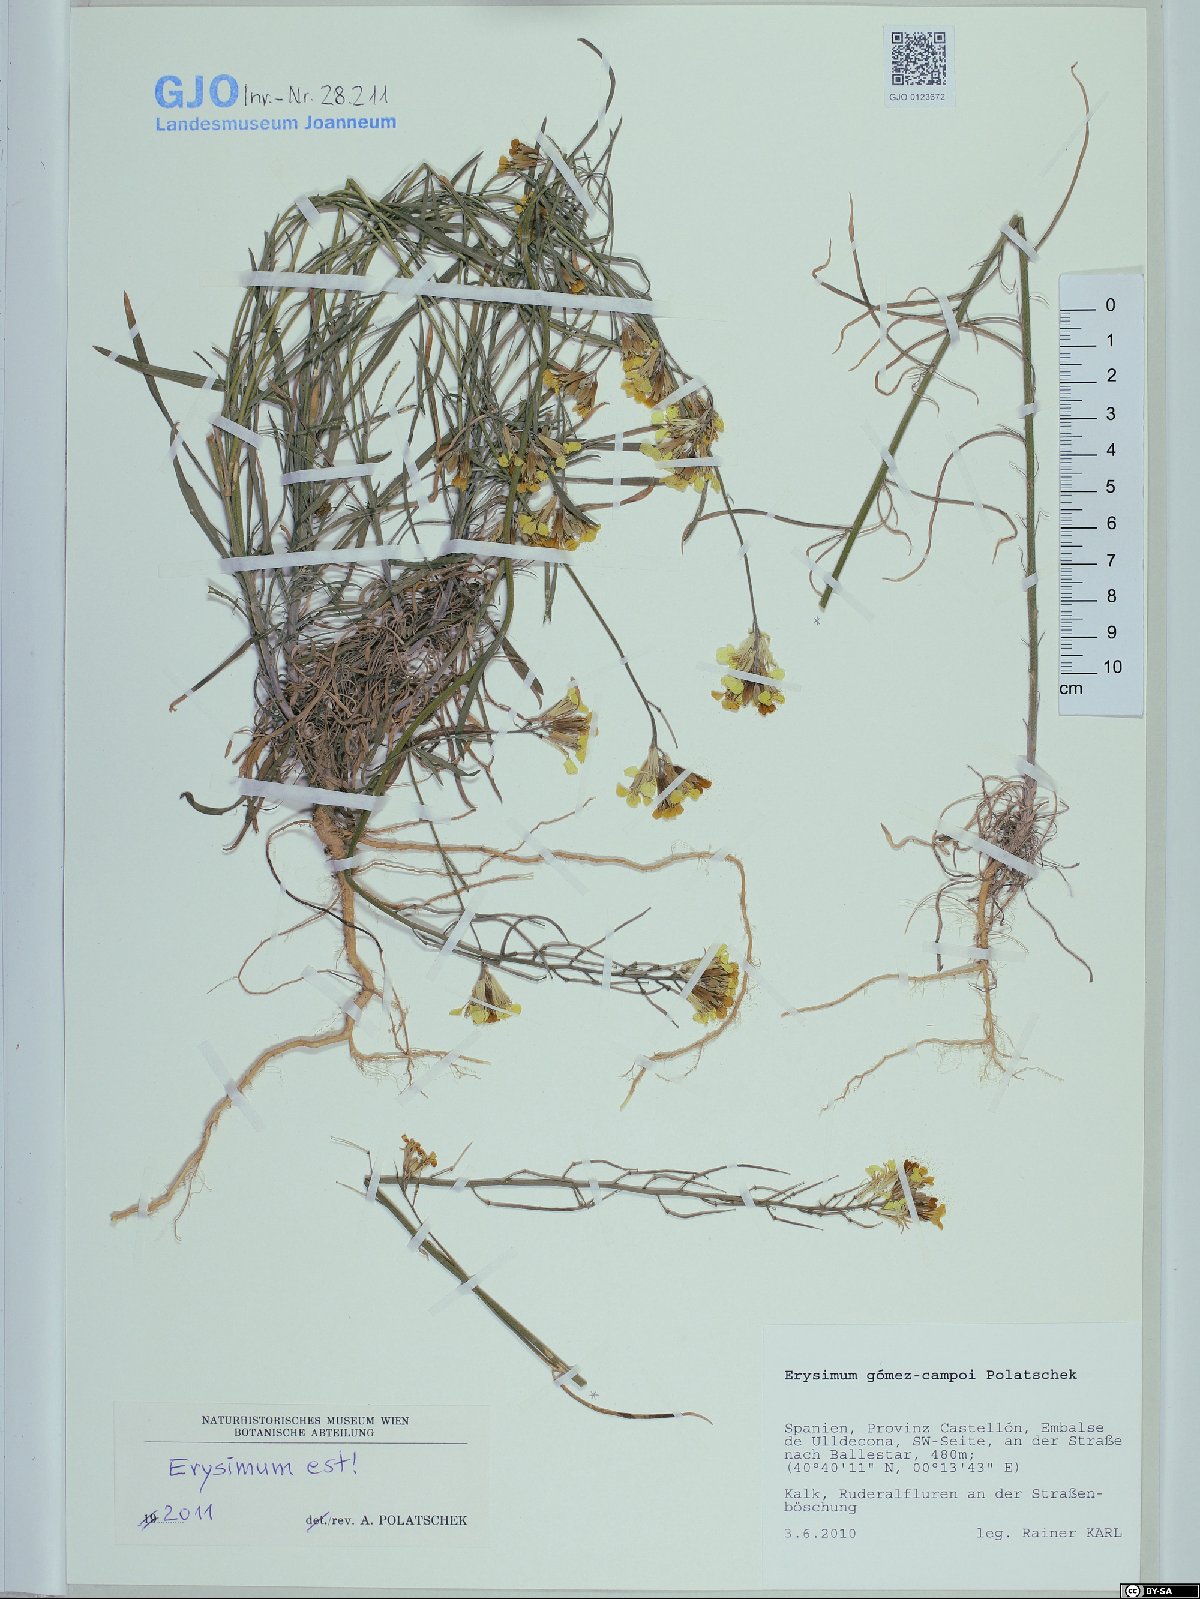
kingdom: Plantae
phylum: Tracheophyta
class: Magnoliopsida
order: Brassicales
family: Brassicaceae
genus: Erysimum
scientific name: Erysimum nevadense
